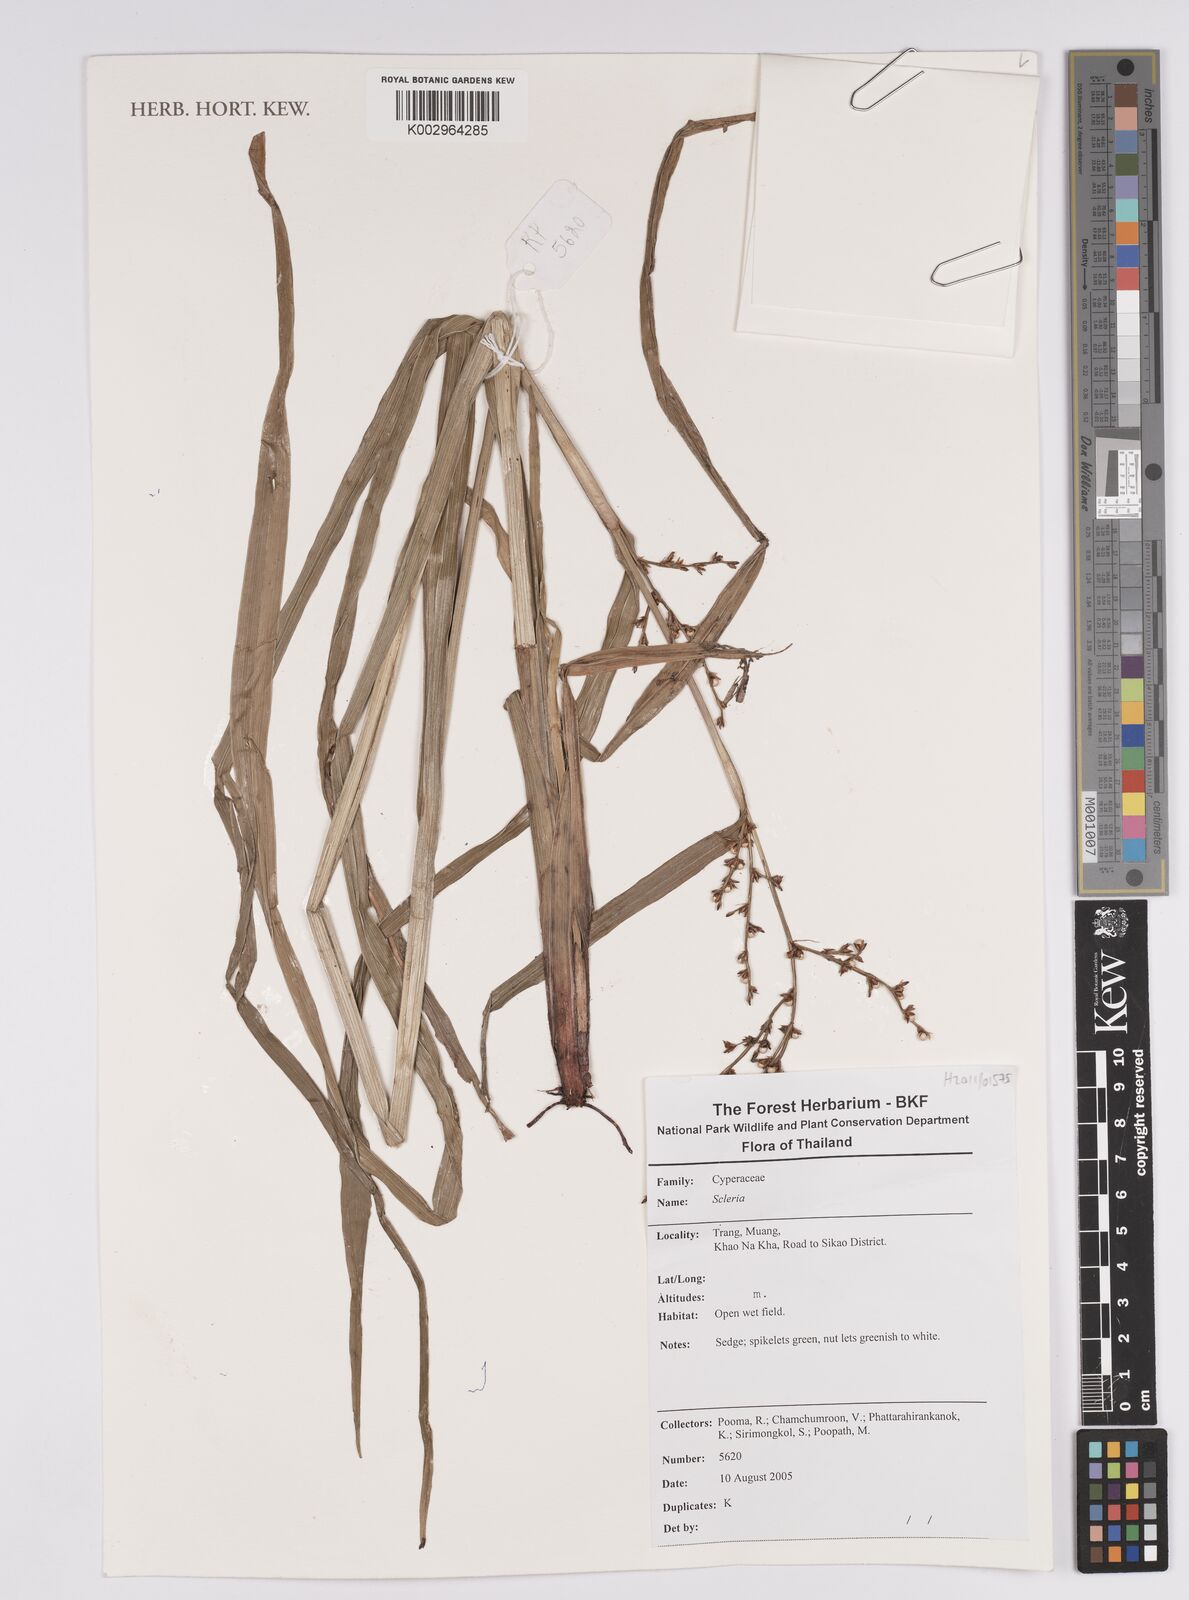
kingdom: Plantae
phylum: Tracheophyta
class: Liliopsida
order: Poales
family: Cyperaceae
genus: Scleria
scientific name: Scleria
